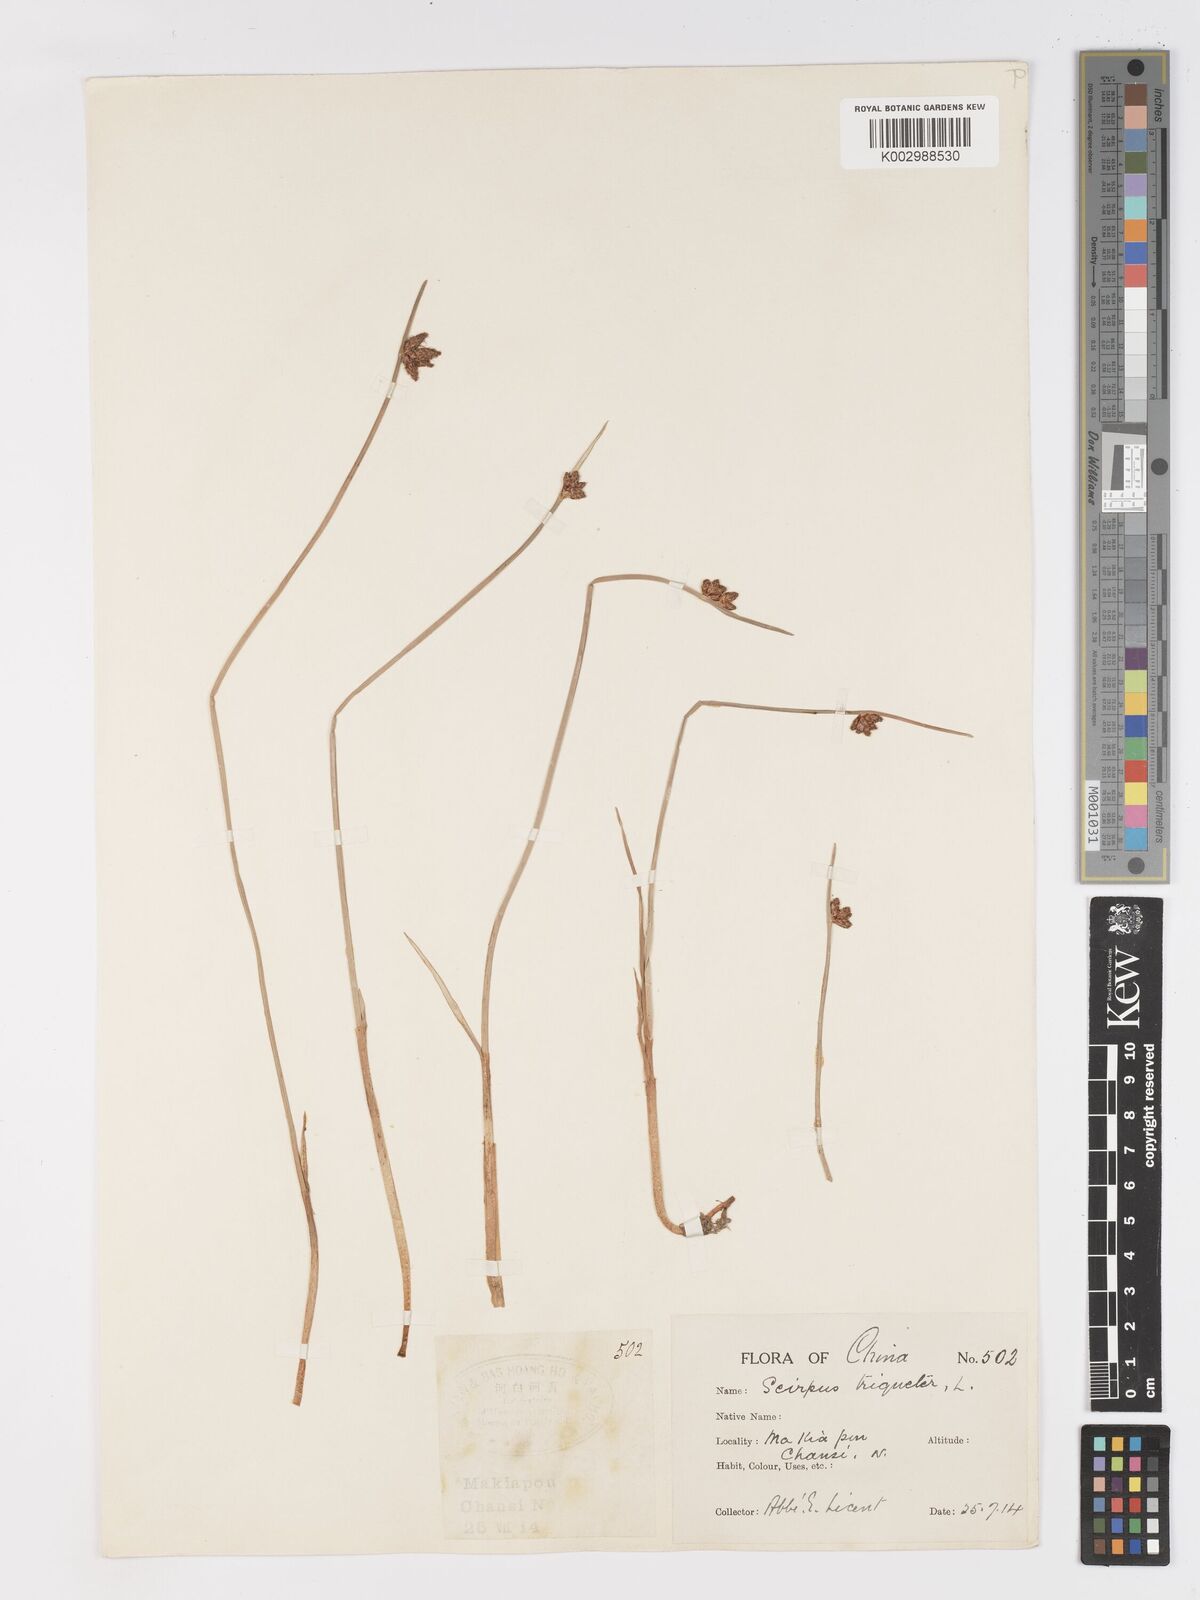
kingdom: Plantae
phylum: Tracheophyta
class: Liliopsida
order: Poales
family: Cyperaceae
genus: Schoenoplectus
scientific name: Schoenoplectus triqueter
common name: Triangular club-rush
